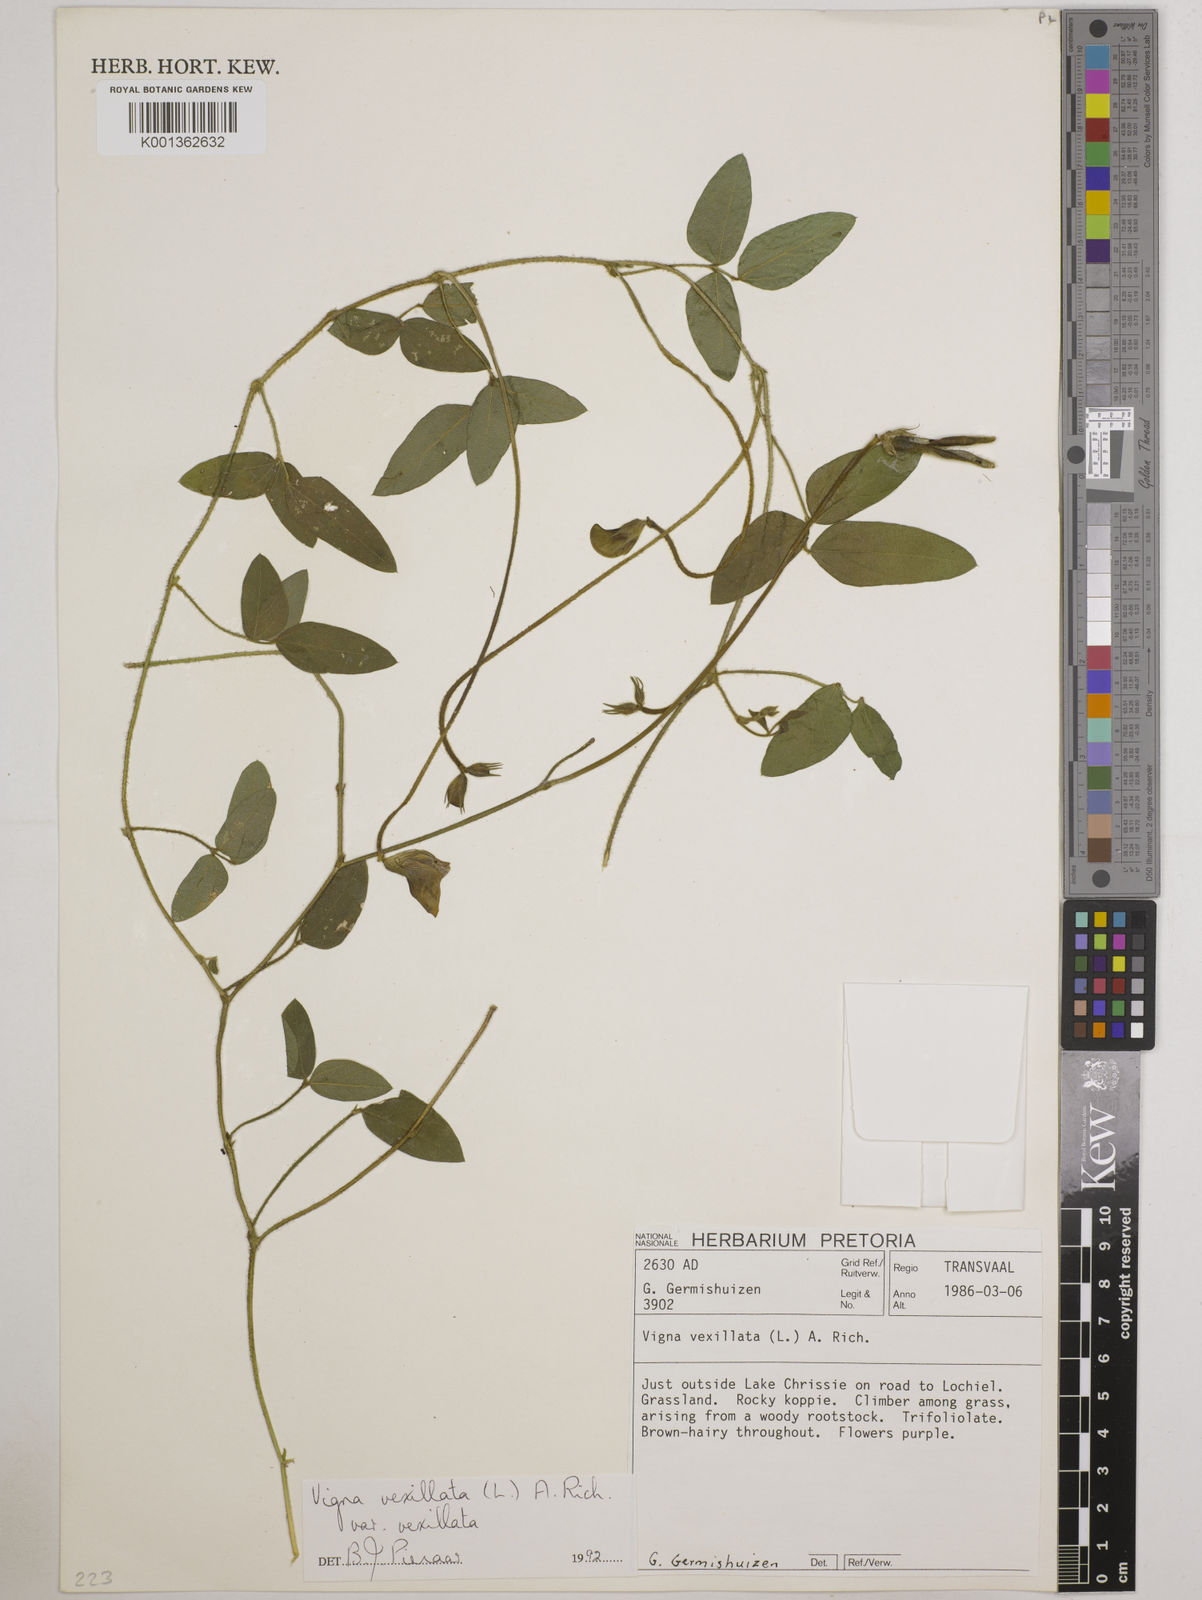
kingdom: Plantae
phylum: Tracheophyta
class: Magnoliopsida
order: Fabales
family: Fabaceae
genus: Vigna
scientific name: Vigna vexillata
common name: Zombi pea
